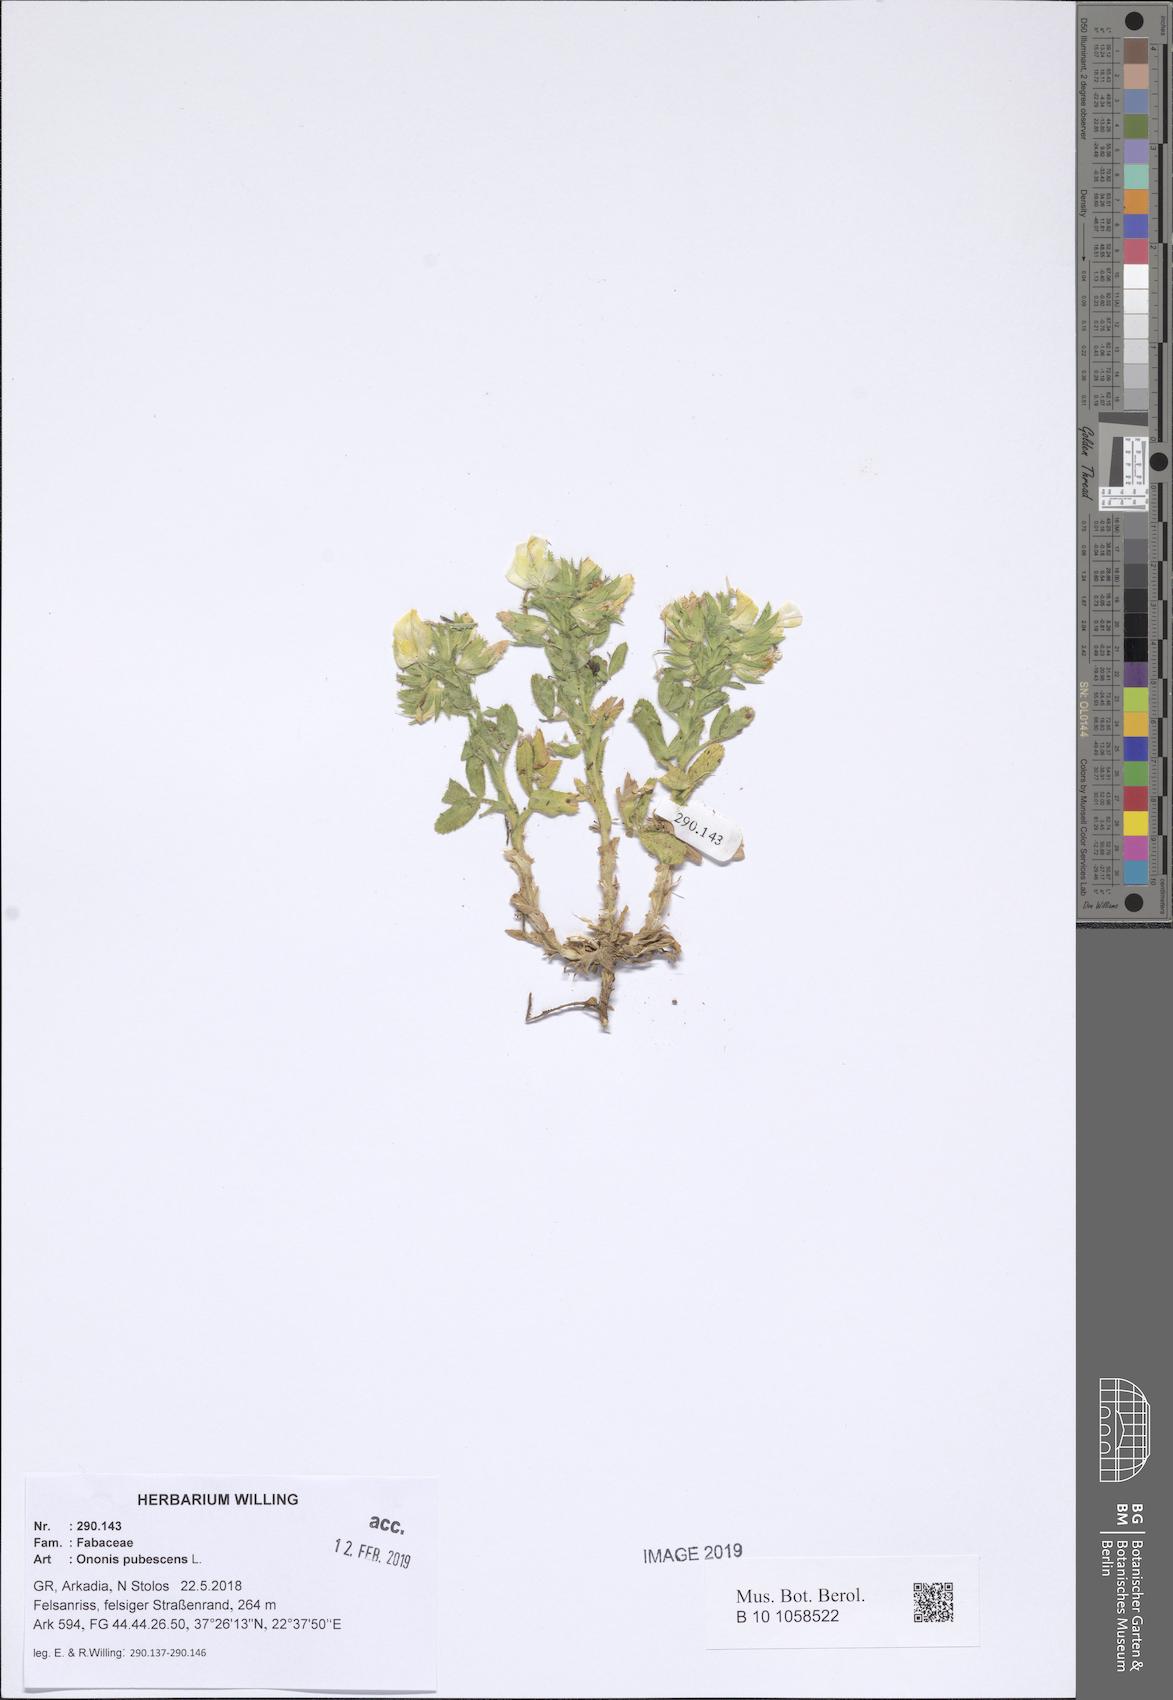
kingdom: Plantae
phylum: Tracheophyta
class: Magnoliopsida
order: Fabales
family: Fabaceae
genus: Ononis
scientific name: Ononis pubescens
